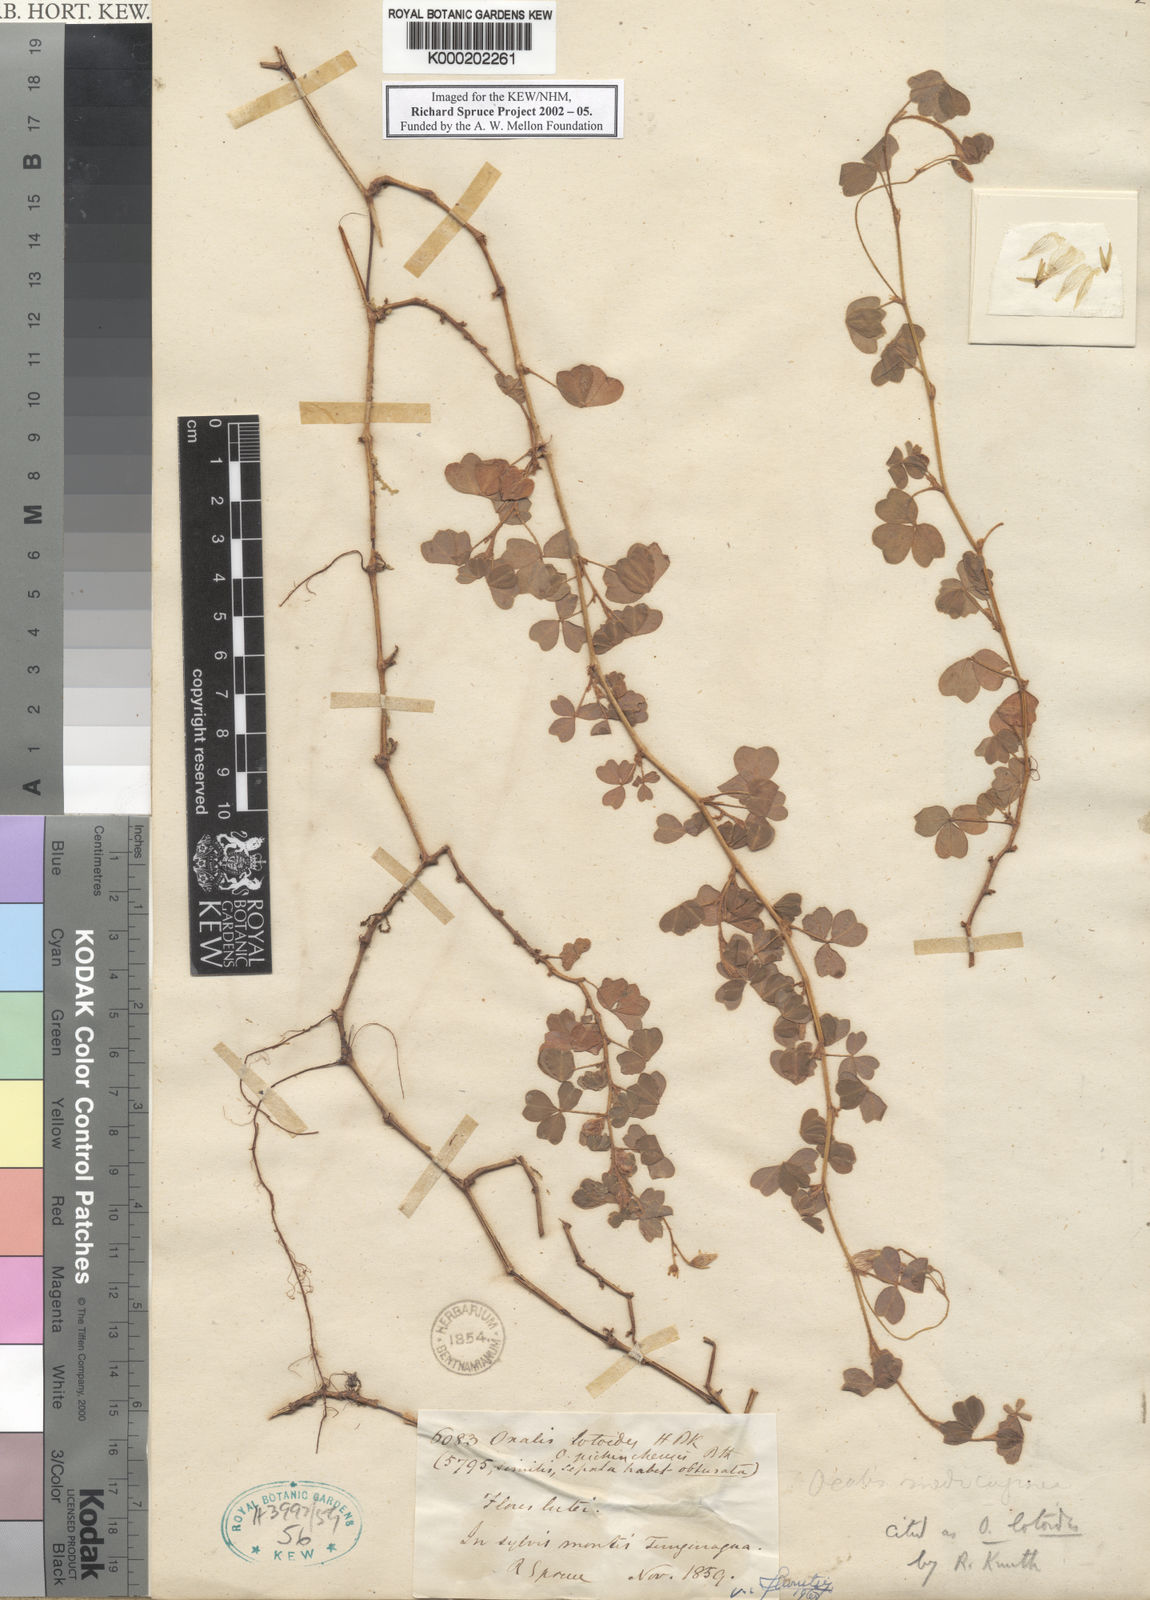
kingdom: Plantae
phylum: Tracheophyta
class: Magnoliopsida
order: Oxalidales
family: Oxalidaceae
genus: Oxalis
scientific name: Oxalis lotoides
